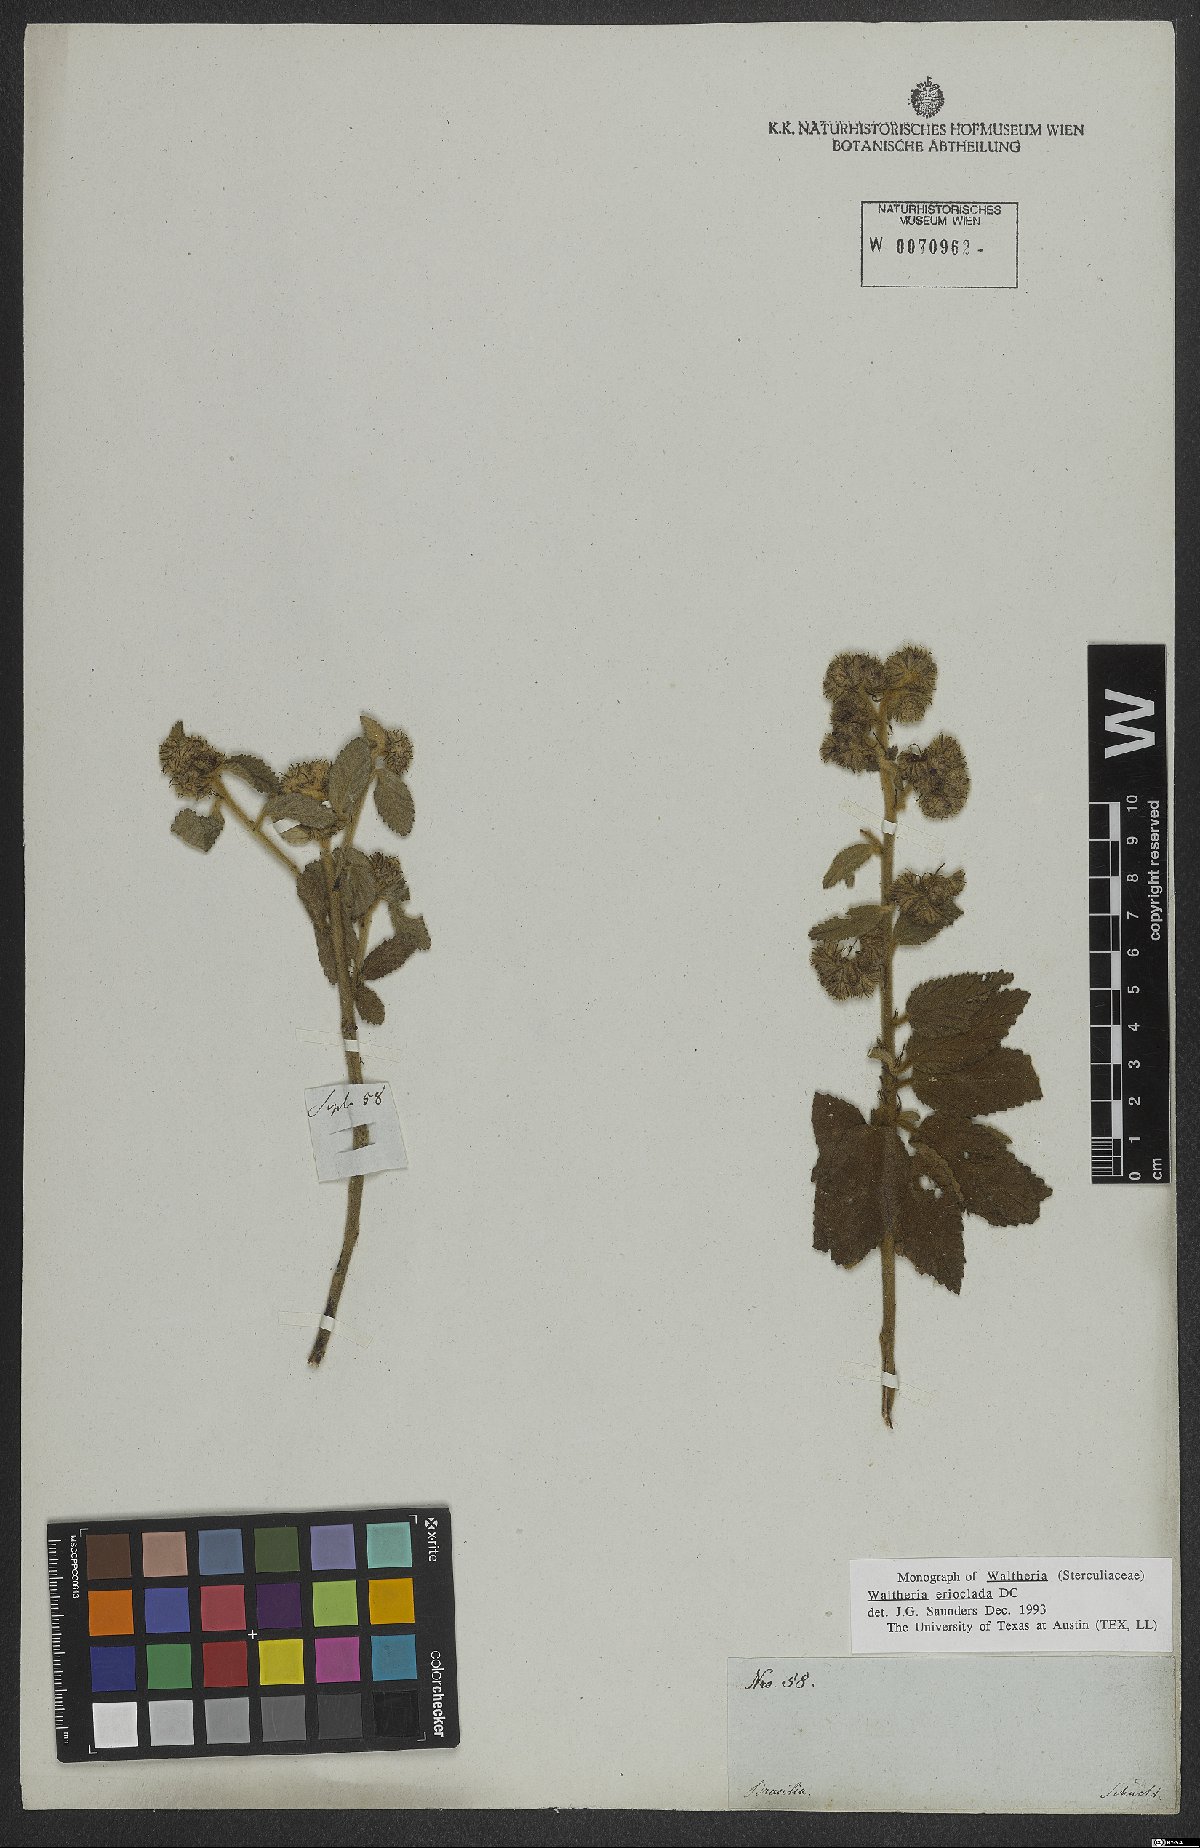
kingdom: Plantae
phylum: Tracheophyta
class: Magnoliopsida
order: Malvales
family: Malvaceae
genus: Waltheria
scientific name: Waltheria indica
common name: Leather-coat
